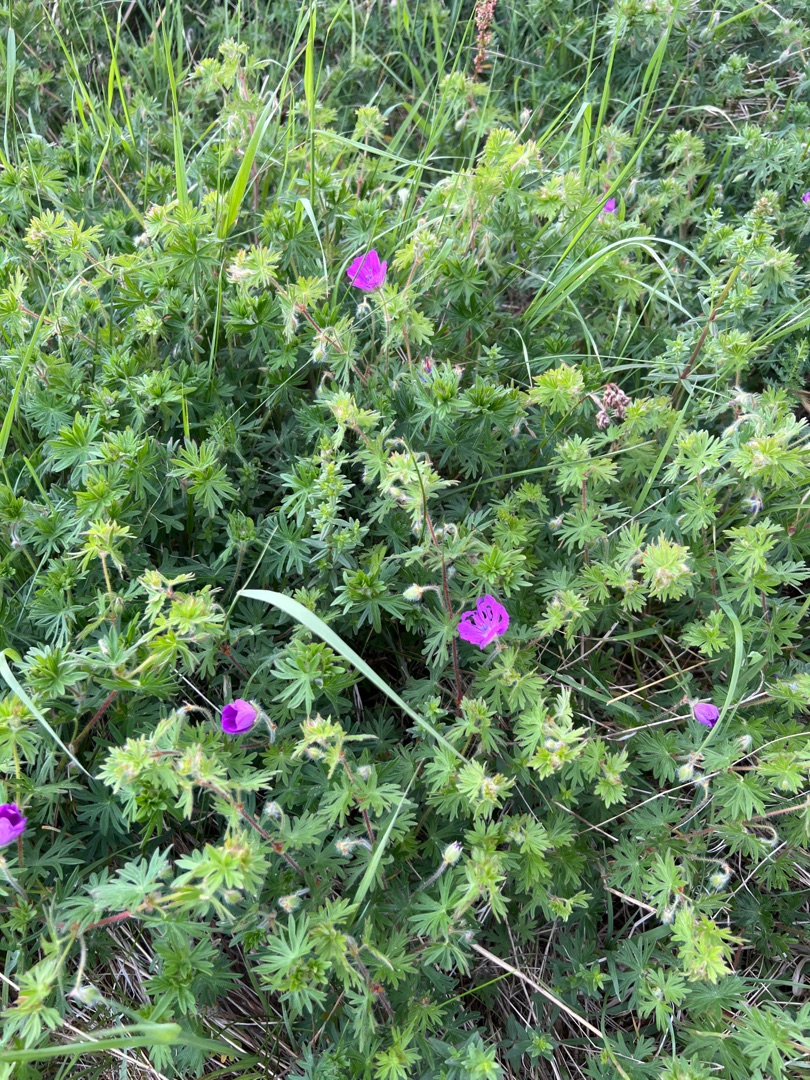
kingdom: Plantae
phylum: Tracheophyta
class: Magnoliopsida
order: Geraniales
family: Geraniaceae
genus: Geranium
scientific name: Geranium sanguineum
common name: Blodrød storkenæb
